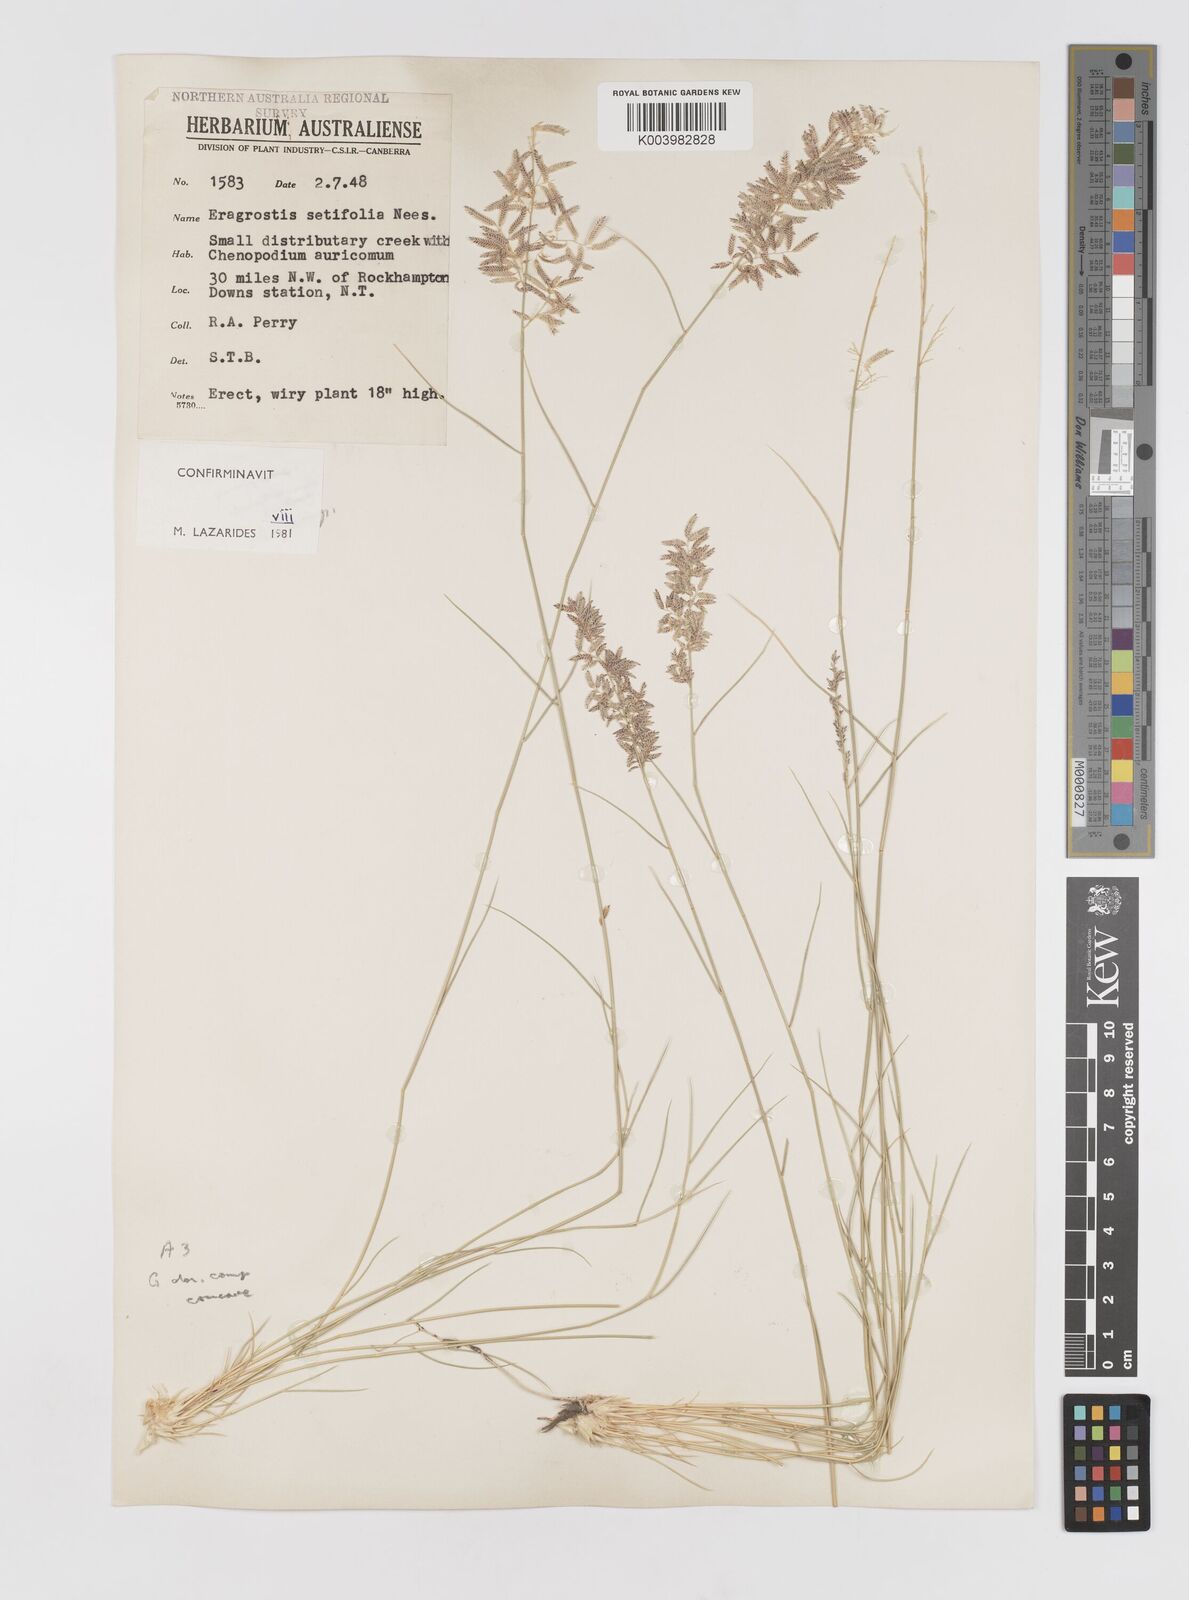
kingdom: Plantae
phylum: Tracheophyta
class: Liliopsida
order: Poales
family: Poaceae
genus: Eragrostis
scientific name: Eragrostis setifolia
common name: Bristleleaf lovegrass
